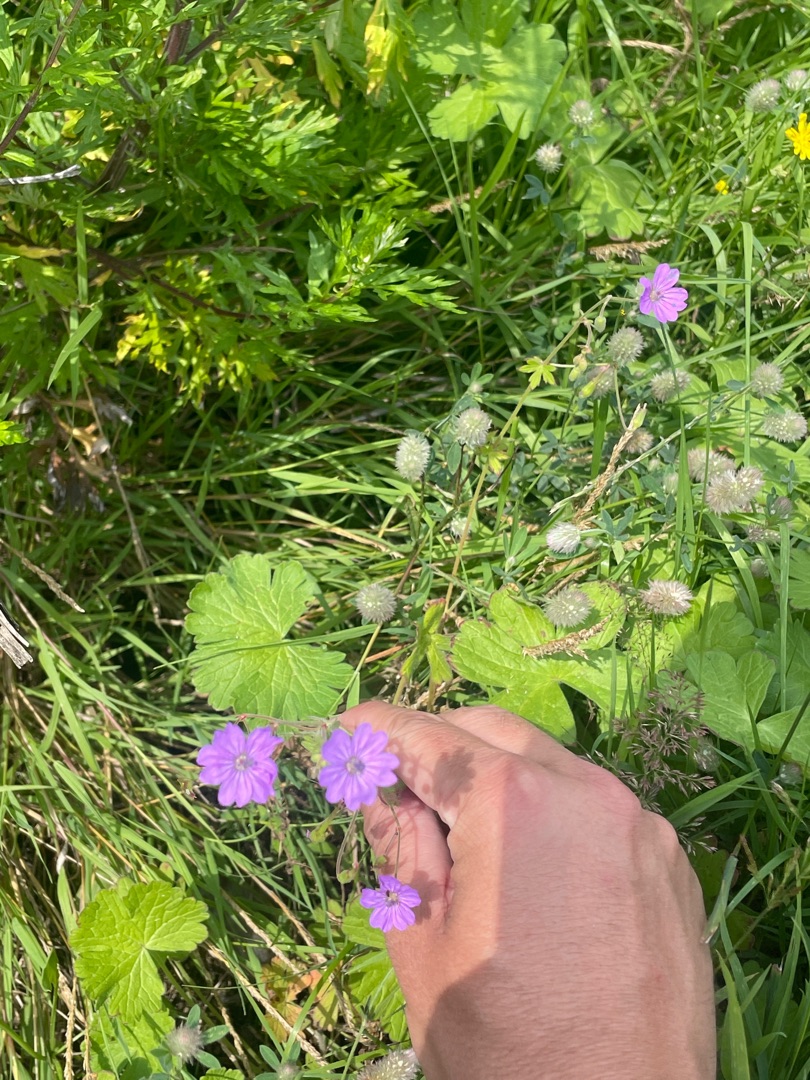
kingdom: Plantae
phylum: Tracheophyta
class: Magnoliopsida
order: Geraniales
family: Geraniaceae
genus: Geranium
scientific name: Geranium pyrenaicum
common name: Pyrenæisk storkenæb
